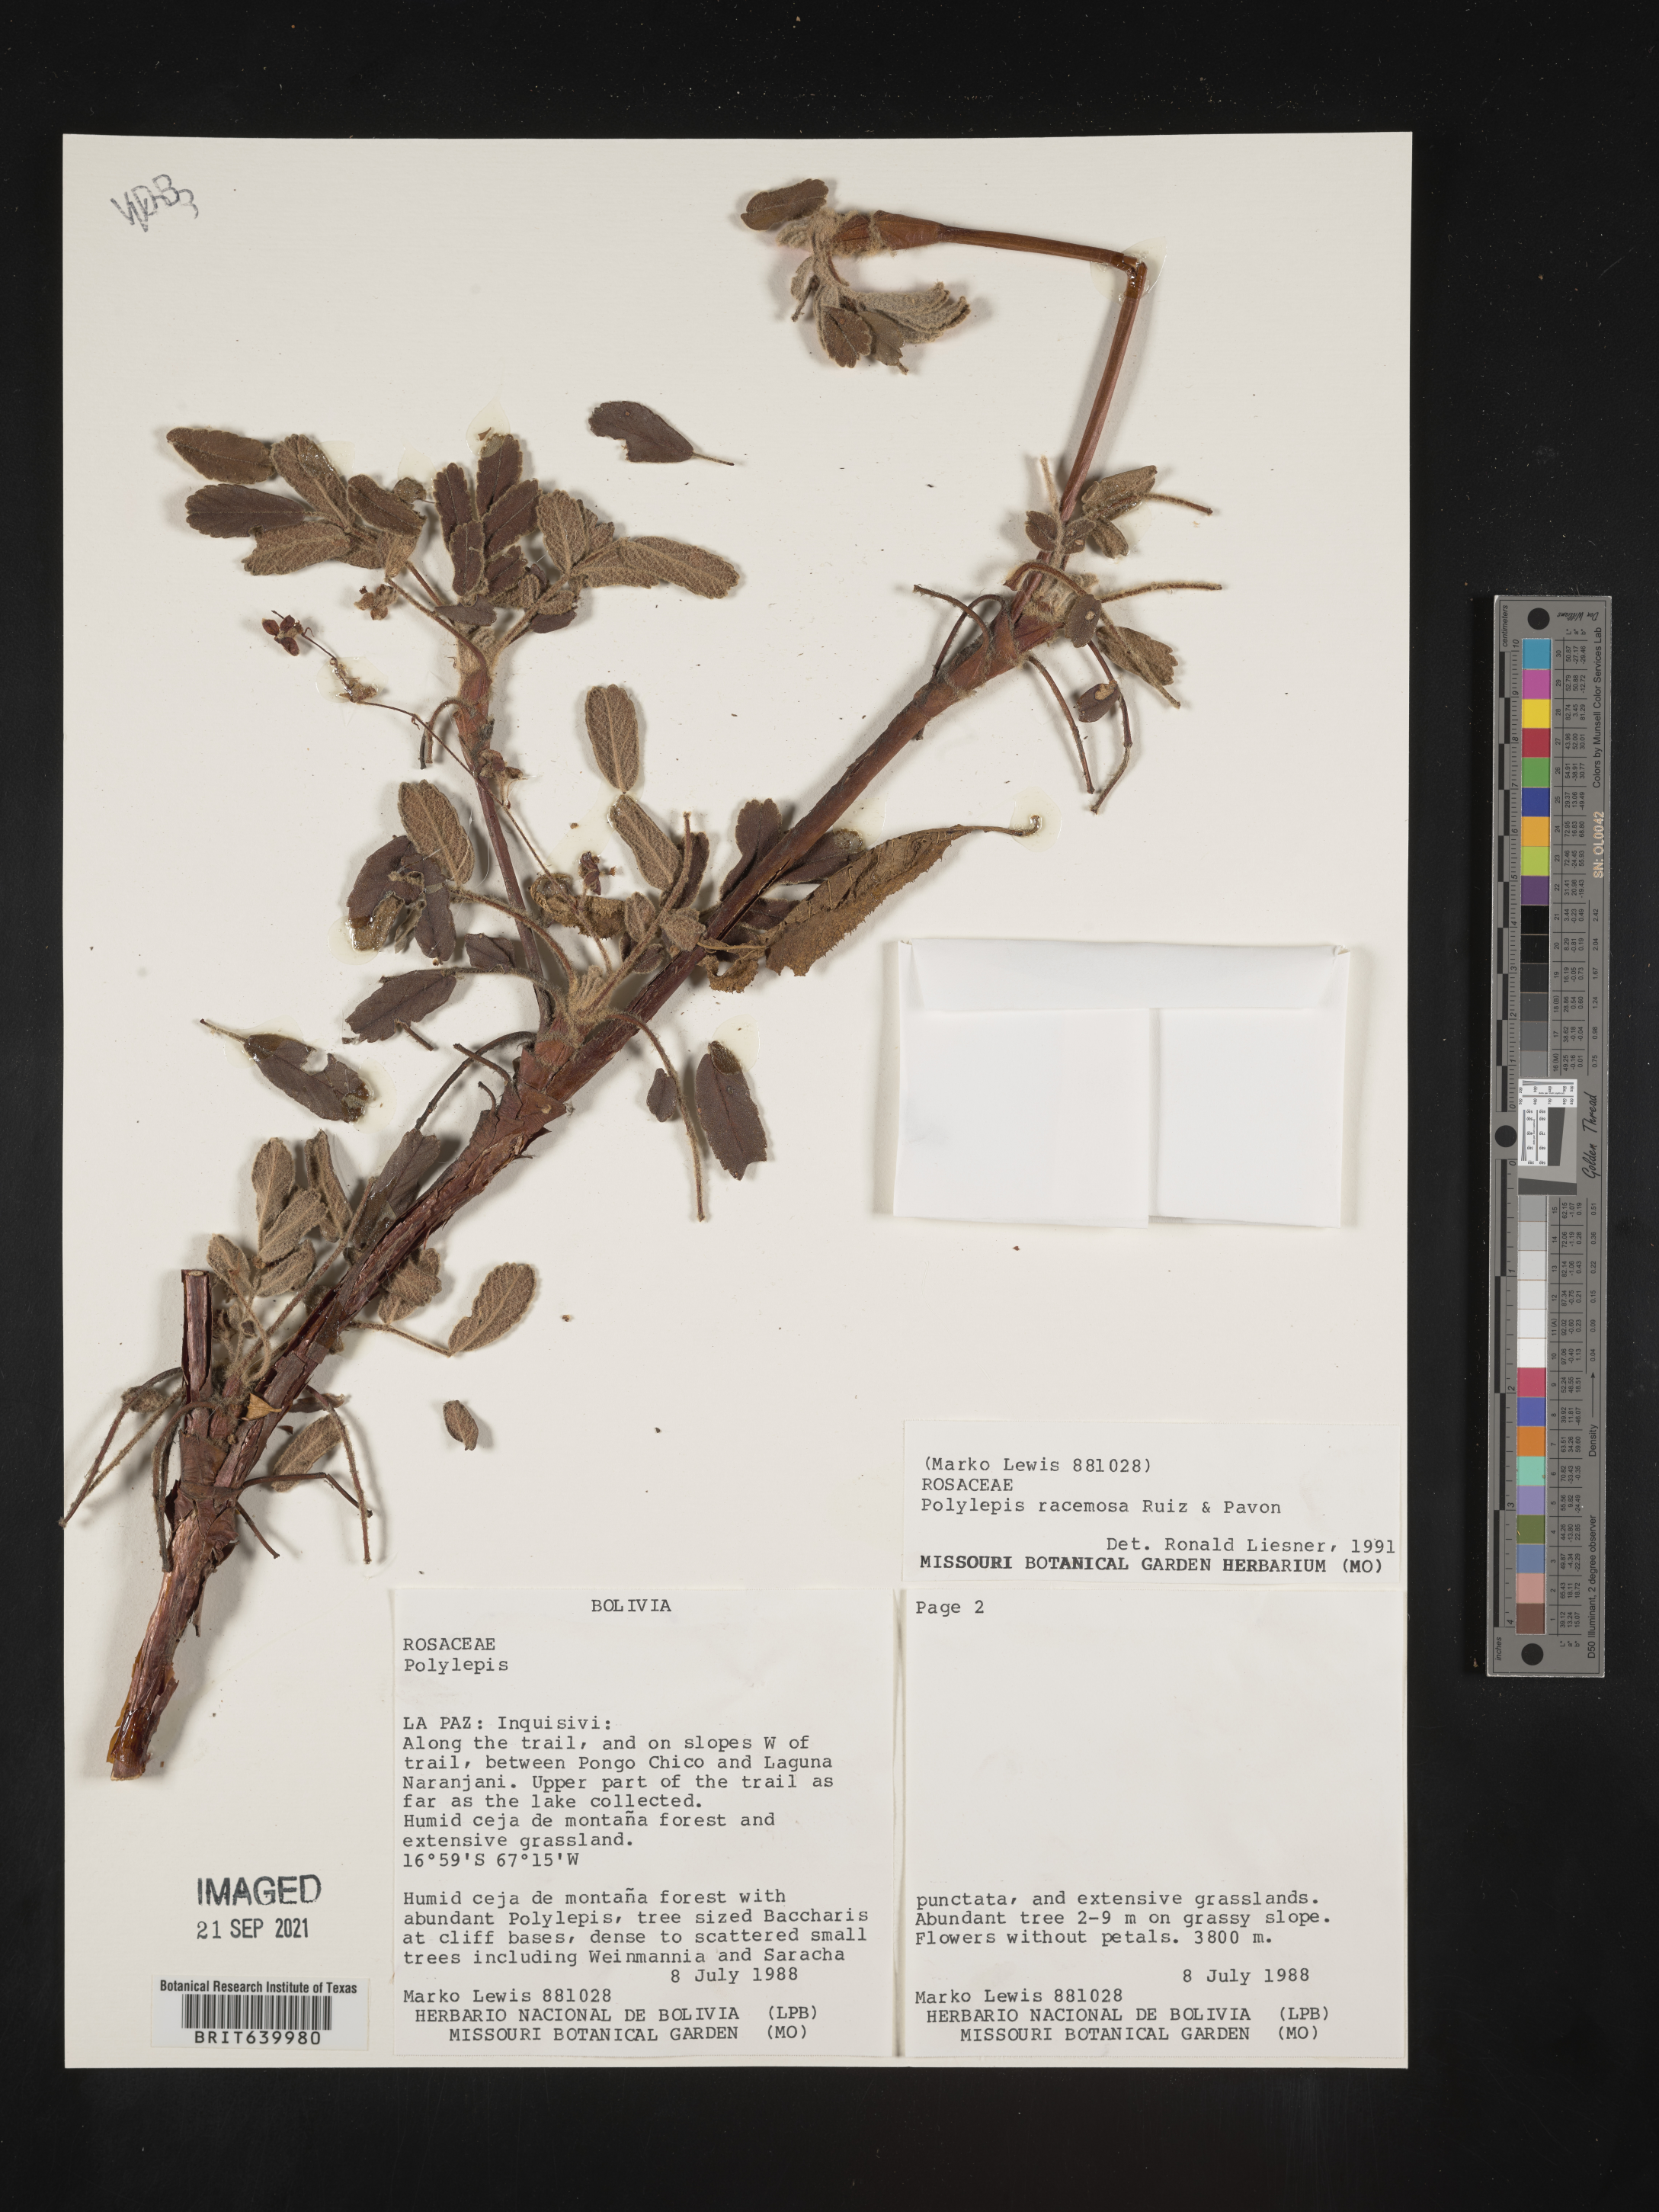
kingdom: Plantae
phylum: Tracheophyta
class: Magnoliopsida
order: Rosales
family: Rosaceae
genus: Polylepis
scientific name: Polylepis
